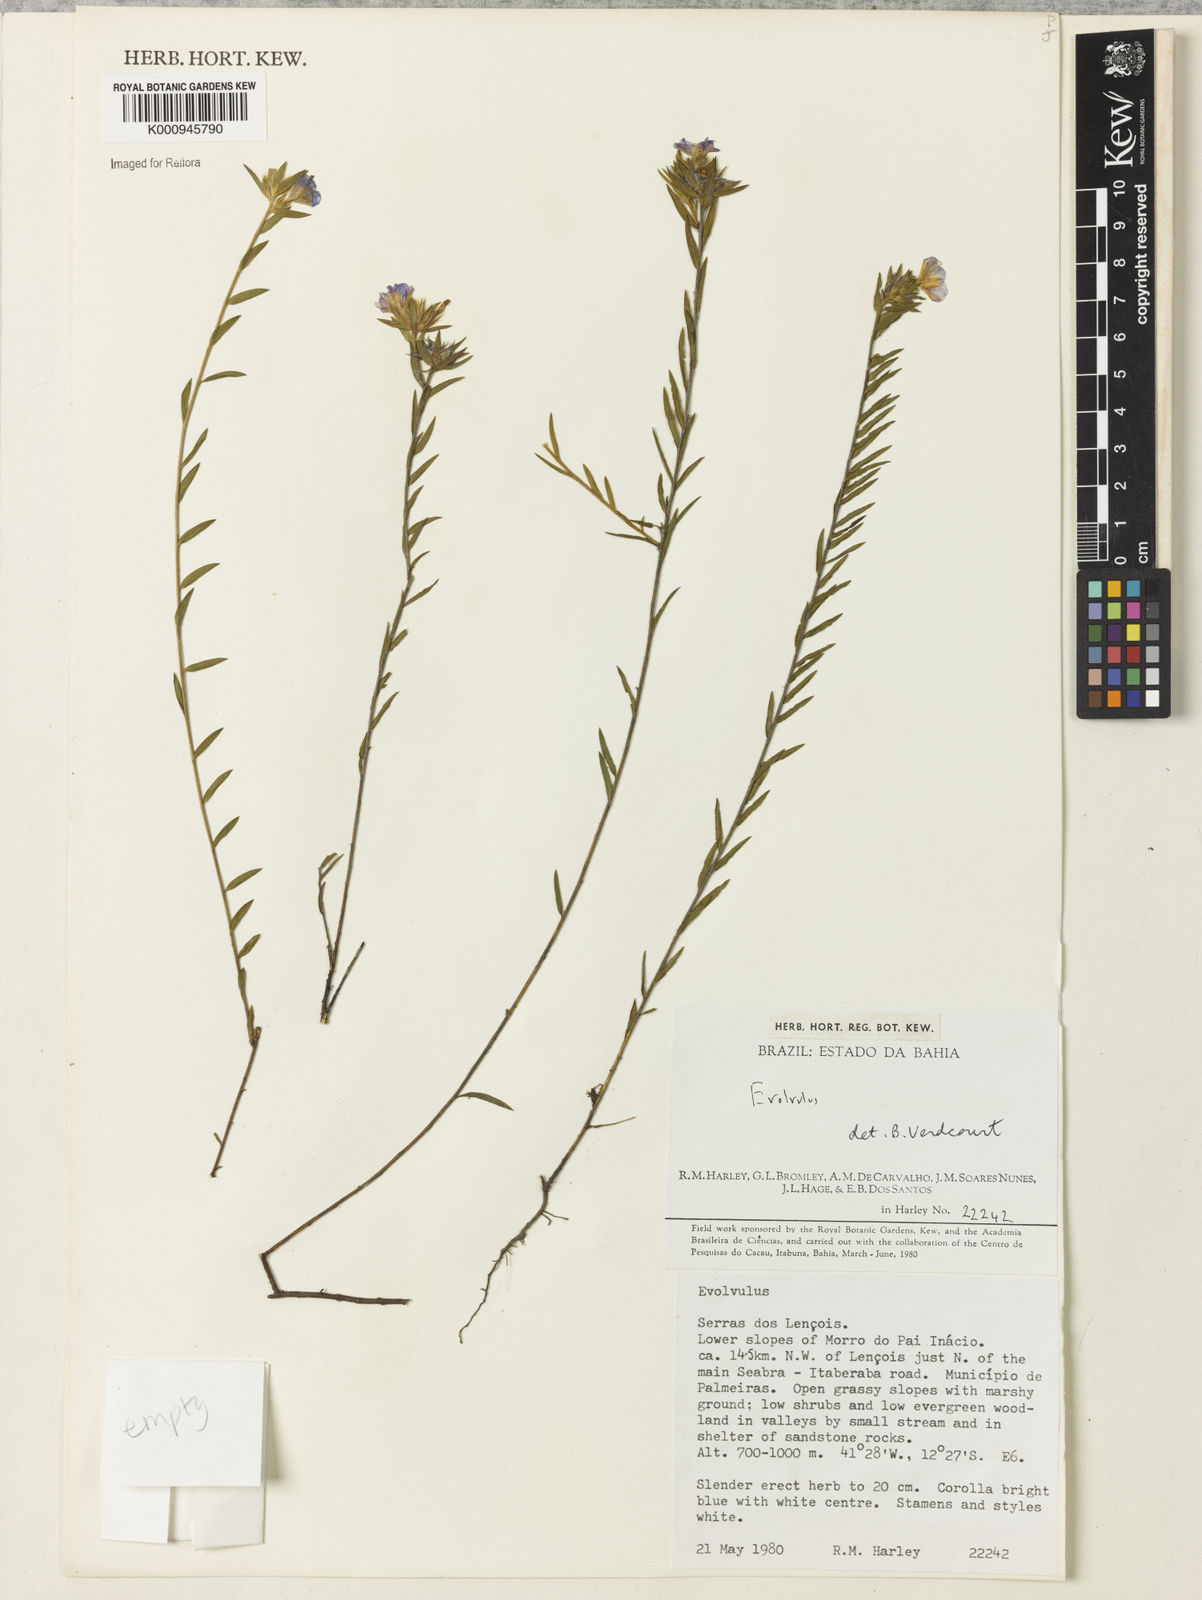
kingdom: Plantae
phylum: Tracheophyta
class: Magnoliopsida
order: Solanales
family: Convolvulaceae
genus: Evolvulus
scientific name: Evolvulus
